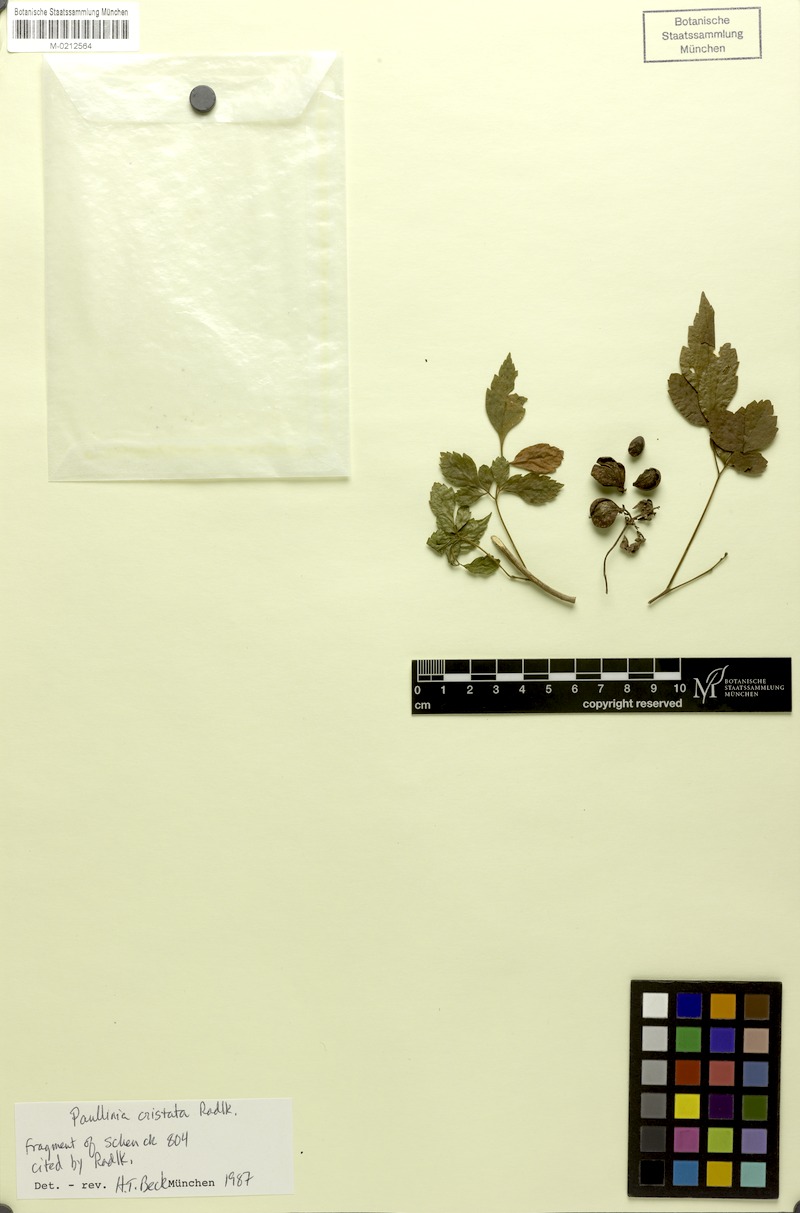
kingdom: Plantae
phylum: Tracheophyta
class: Magnoliopsida
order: Sapindales
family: Sapindaceae
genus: Paullinia
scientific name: Paullinia cristata
